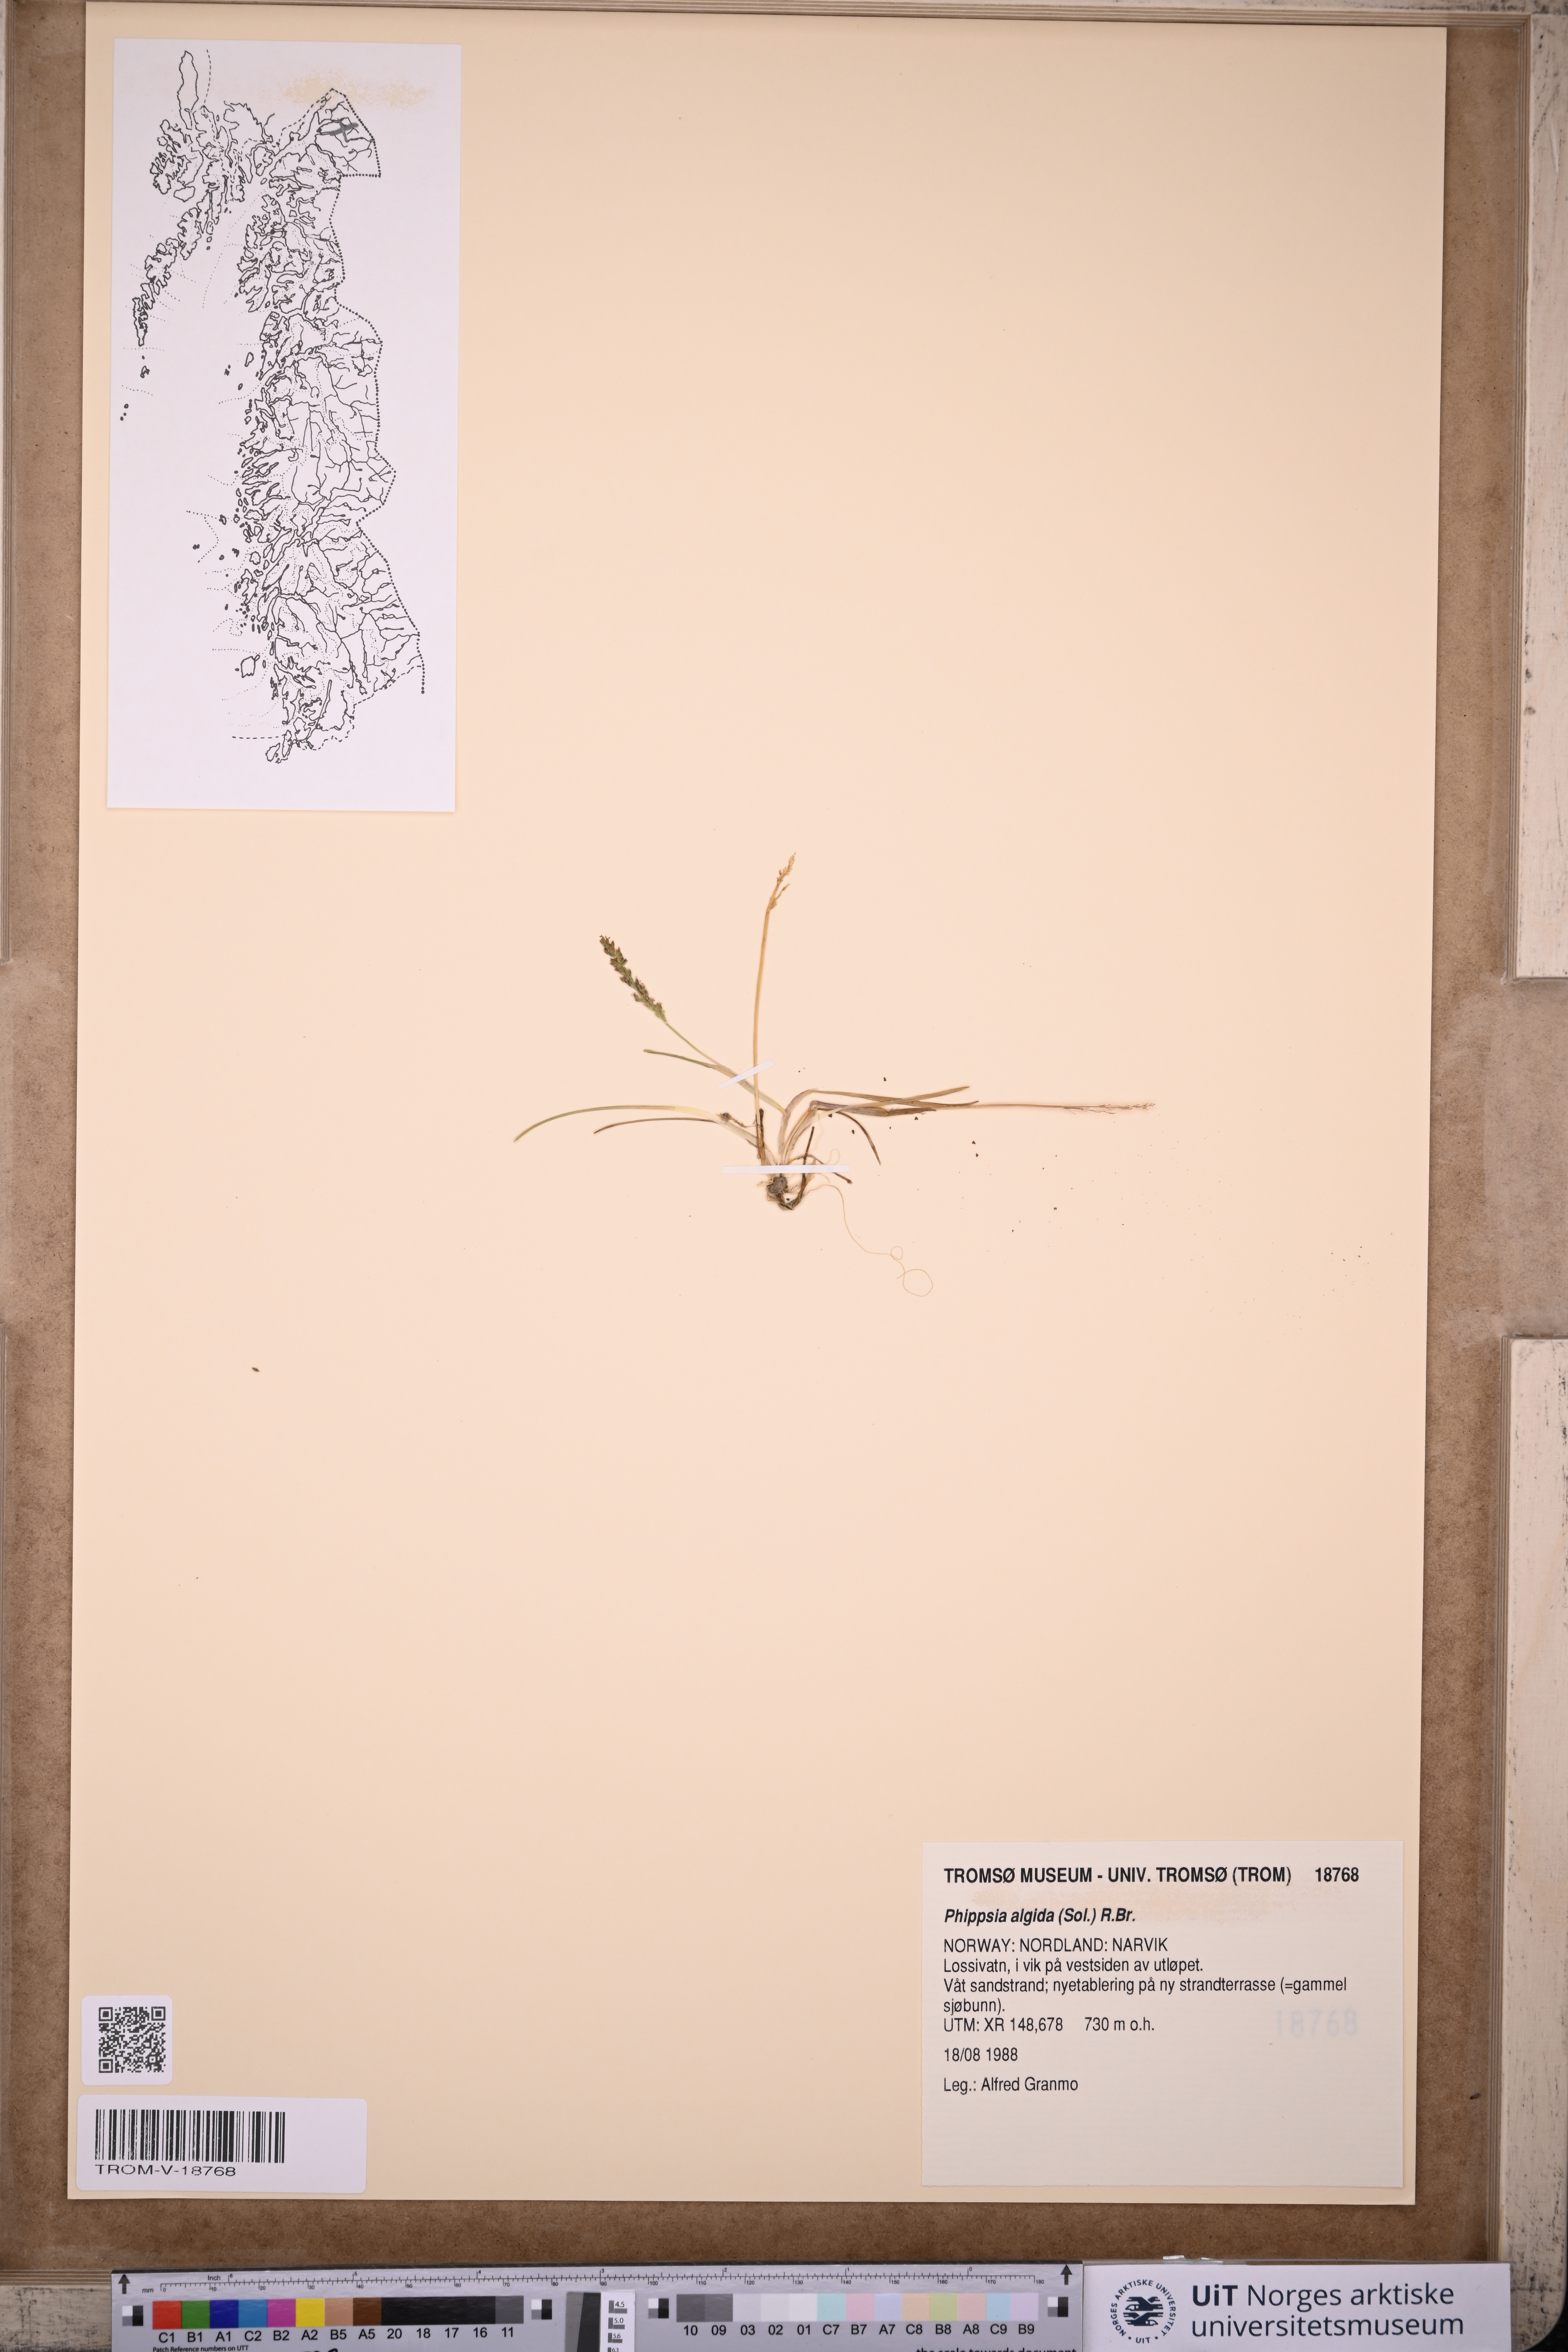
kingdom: Plantae
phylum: Tracheophyta
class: Liliopsida
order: Poales
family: Poaceae
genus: Phippsia
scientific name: Phippsia algida
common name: Ice grass
